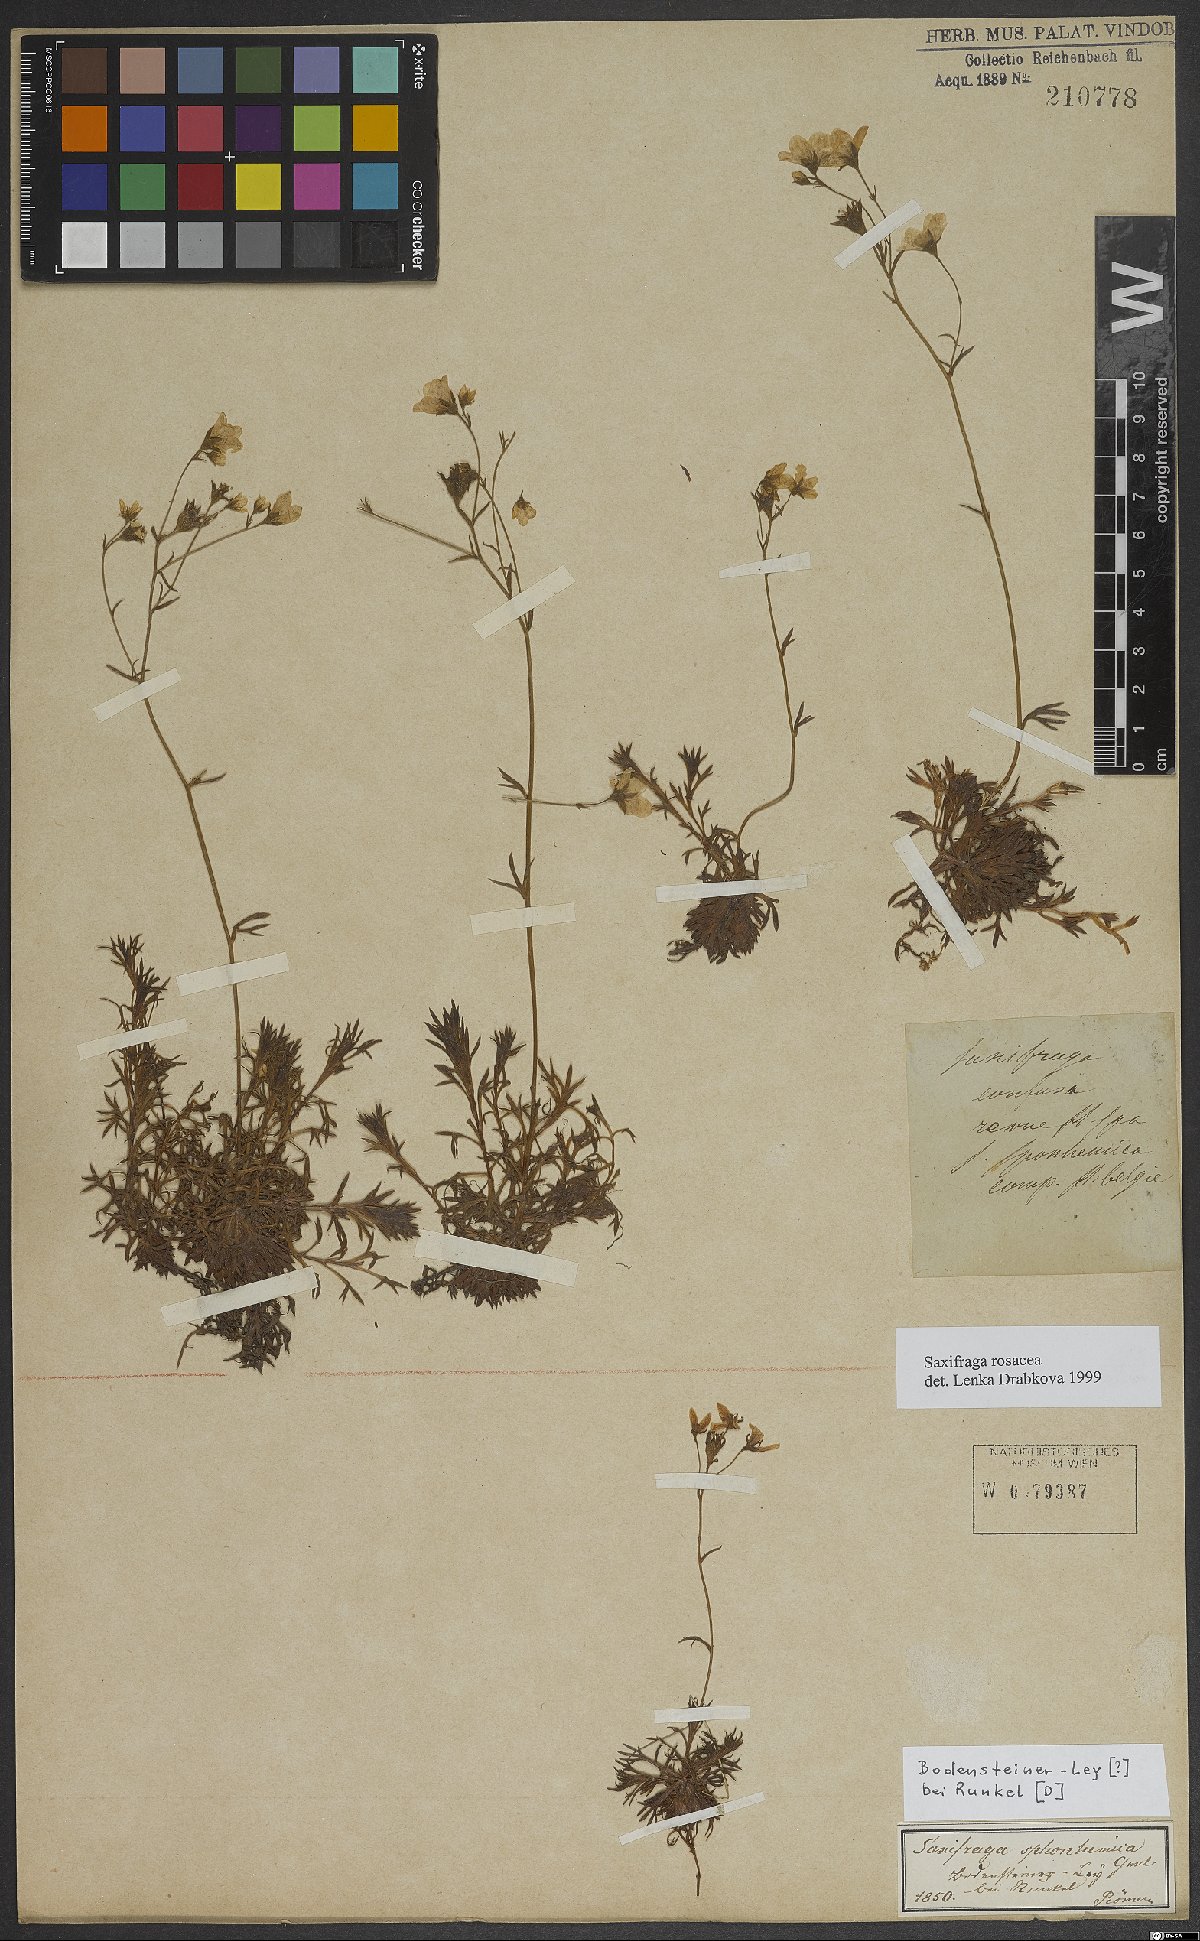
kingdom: Plantae
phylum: Tracheophyta
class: Magnoliopsida
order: Saxifragales
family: Saxifragaceae
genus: Saxifraga
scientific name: Saxifraga rosacea
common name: Irish saxifrage
